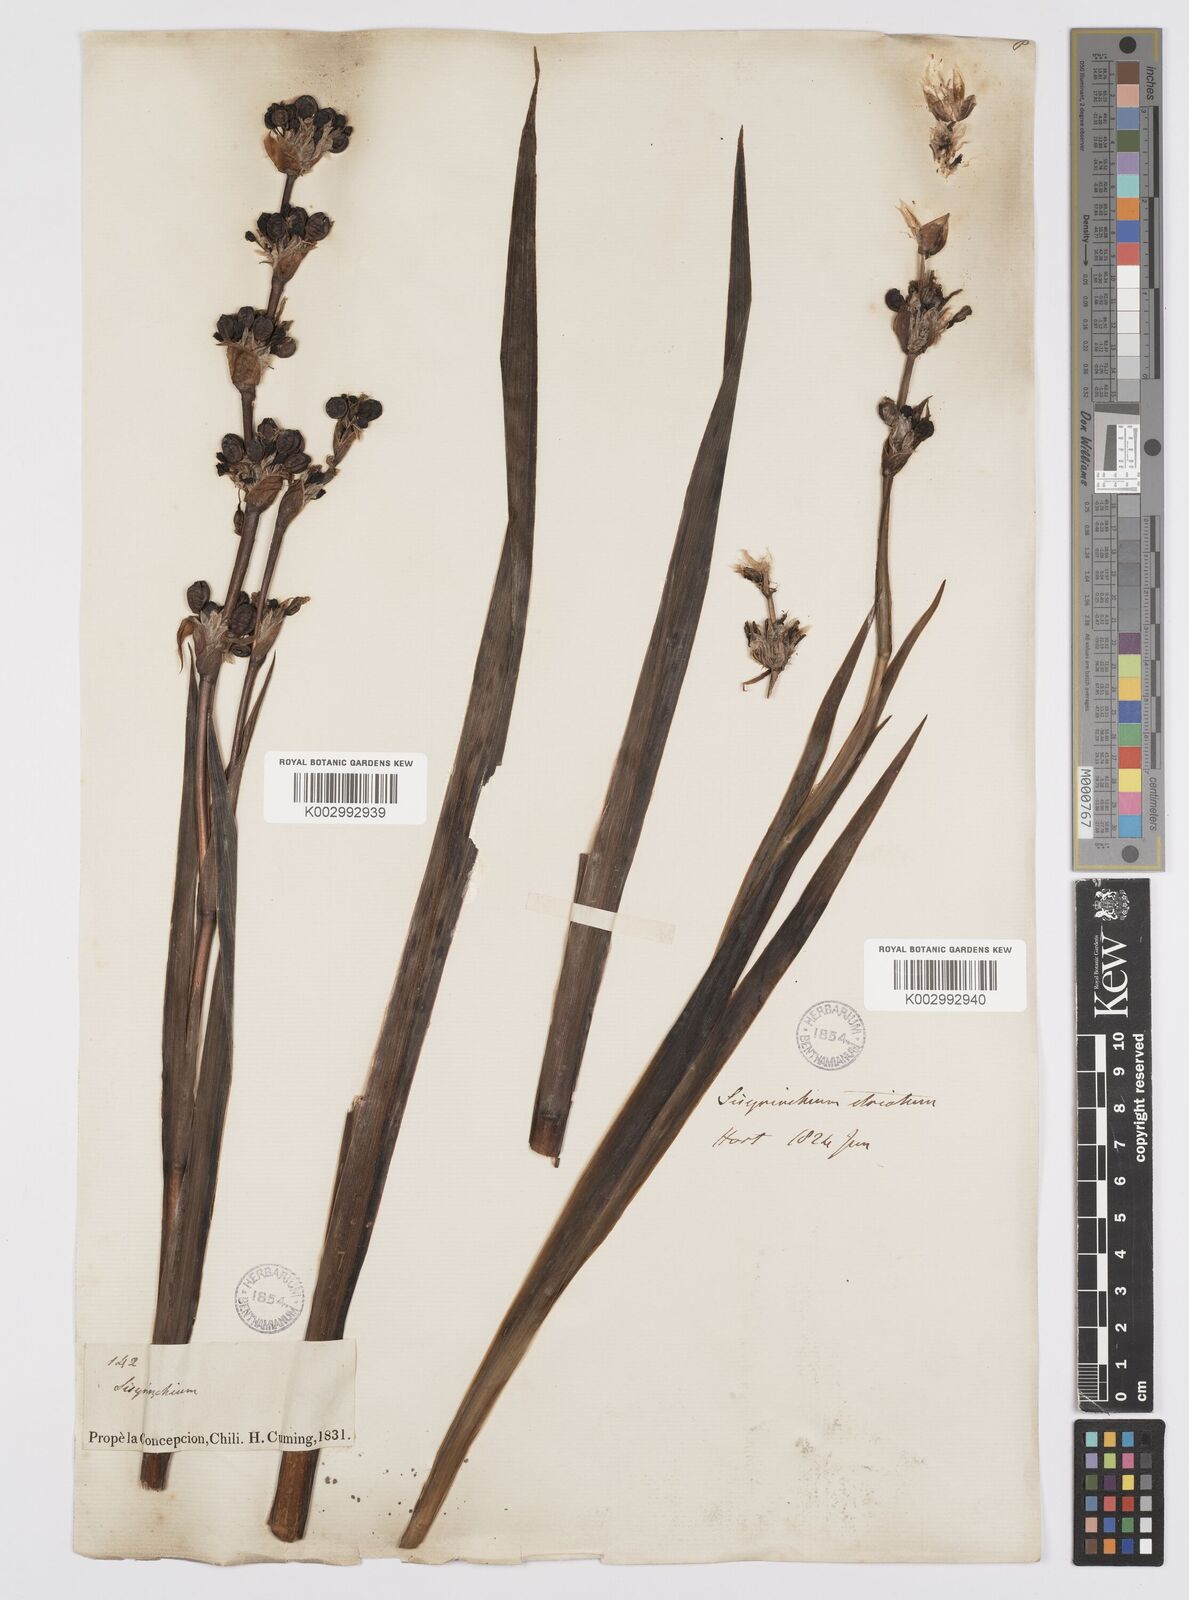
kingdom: Plantae
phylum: Tracheophyta
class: Liliopsida
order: Asparagales
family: Iridaceae
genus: Sisyrinchium
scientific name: Sisyrinchium striatum
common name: Pale yellow-eyed-grass
